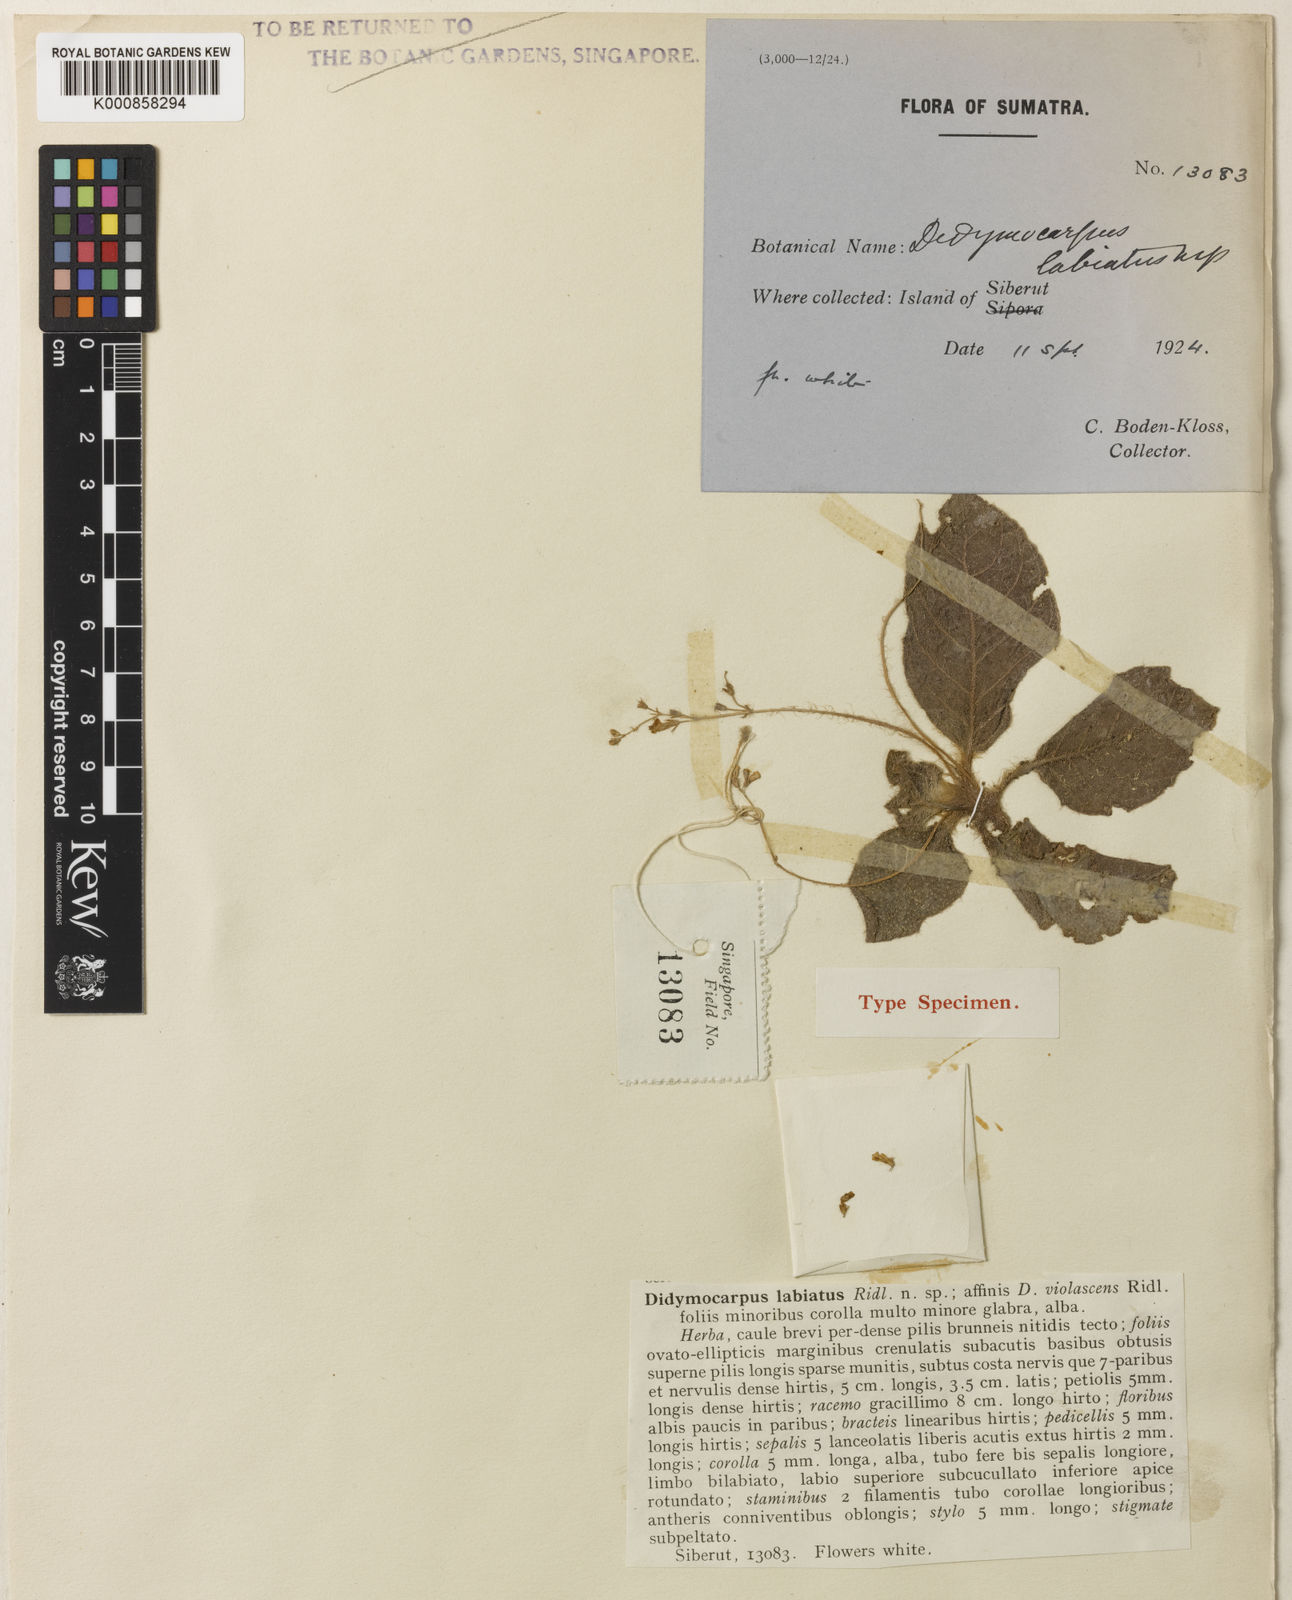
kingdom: Plantae
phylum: Tracheophyta
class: Magnoliopsida
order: Lamiales
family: Gesneriaceae
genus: Henckelia
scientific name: Henckelia
